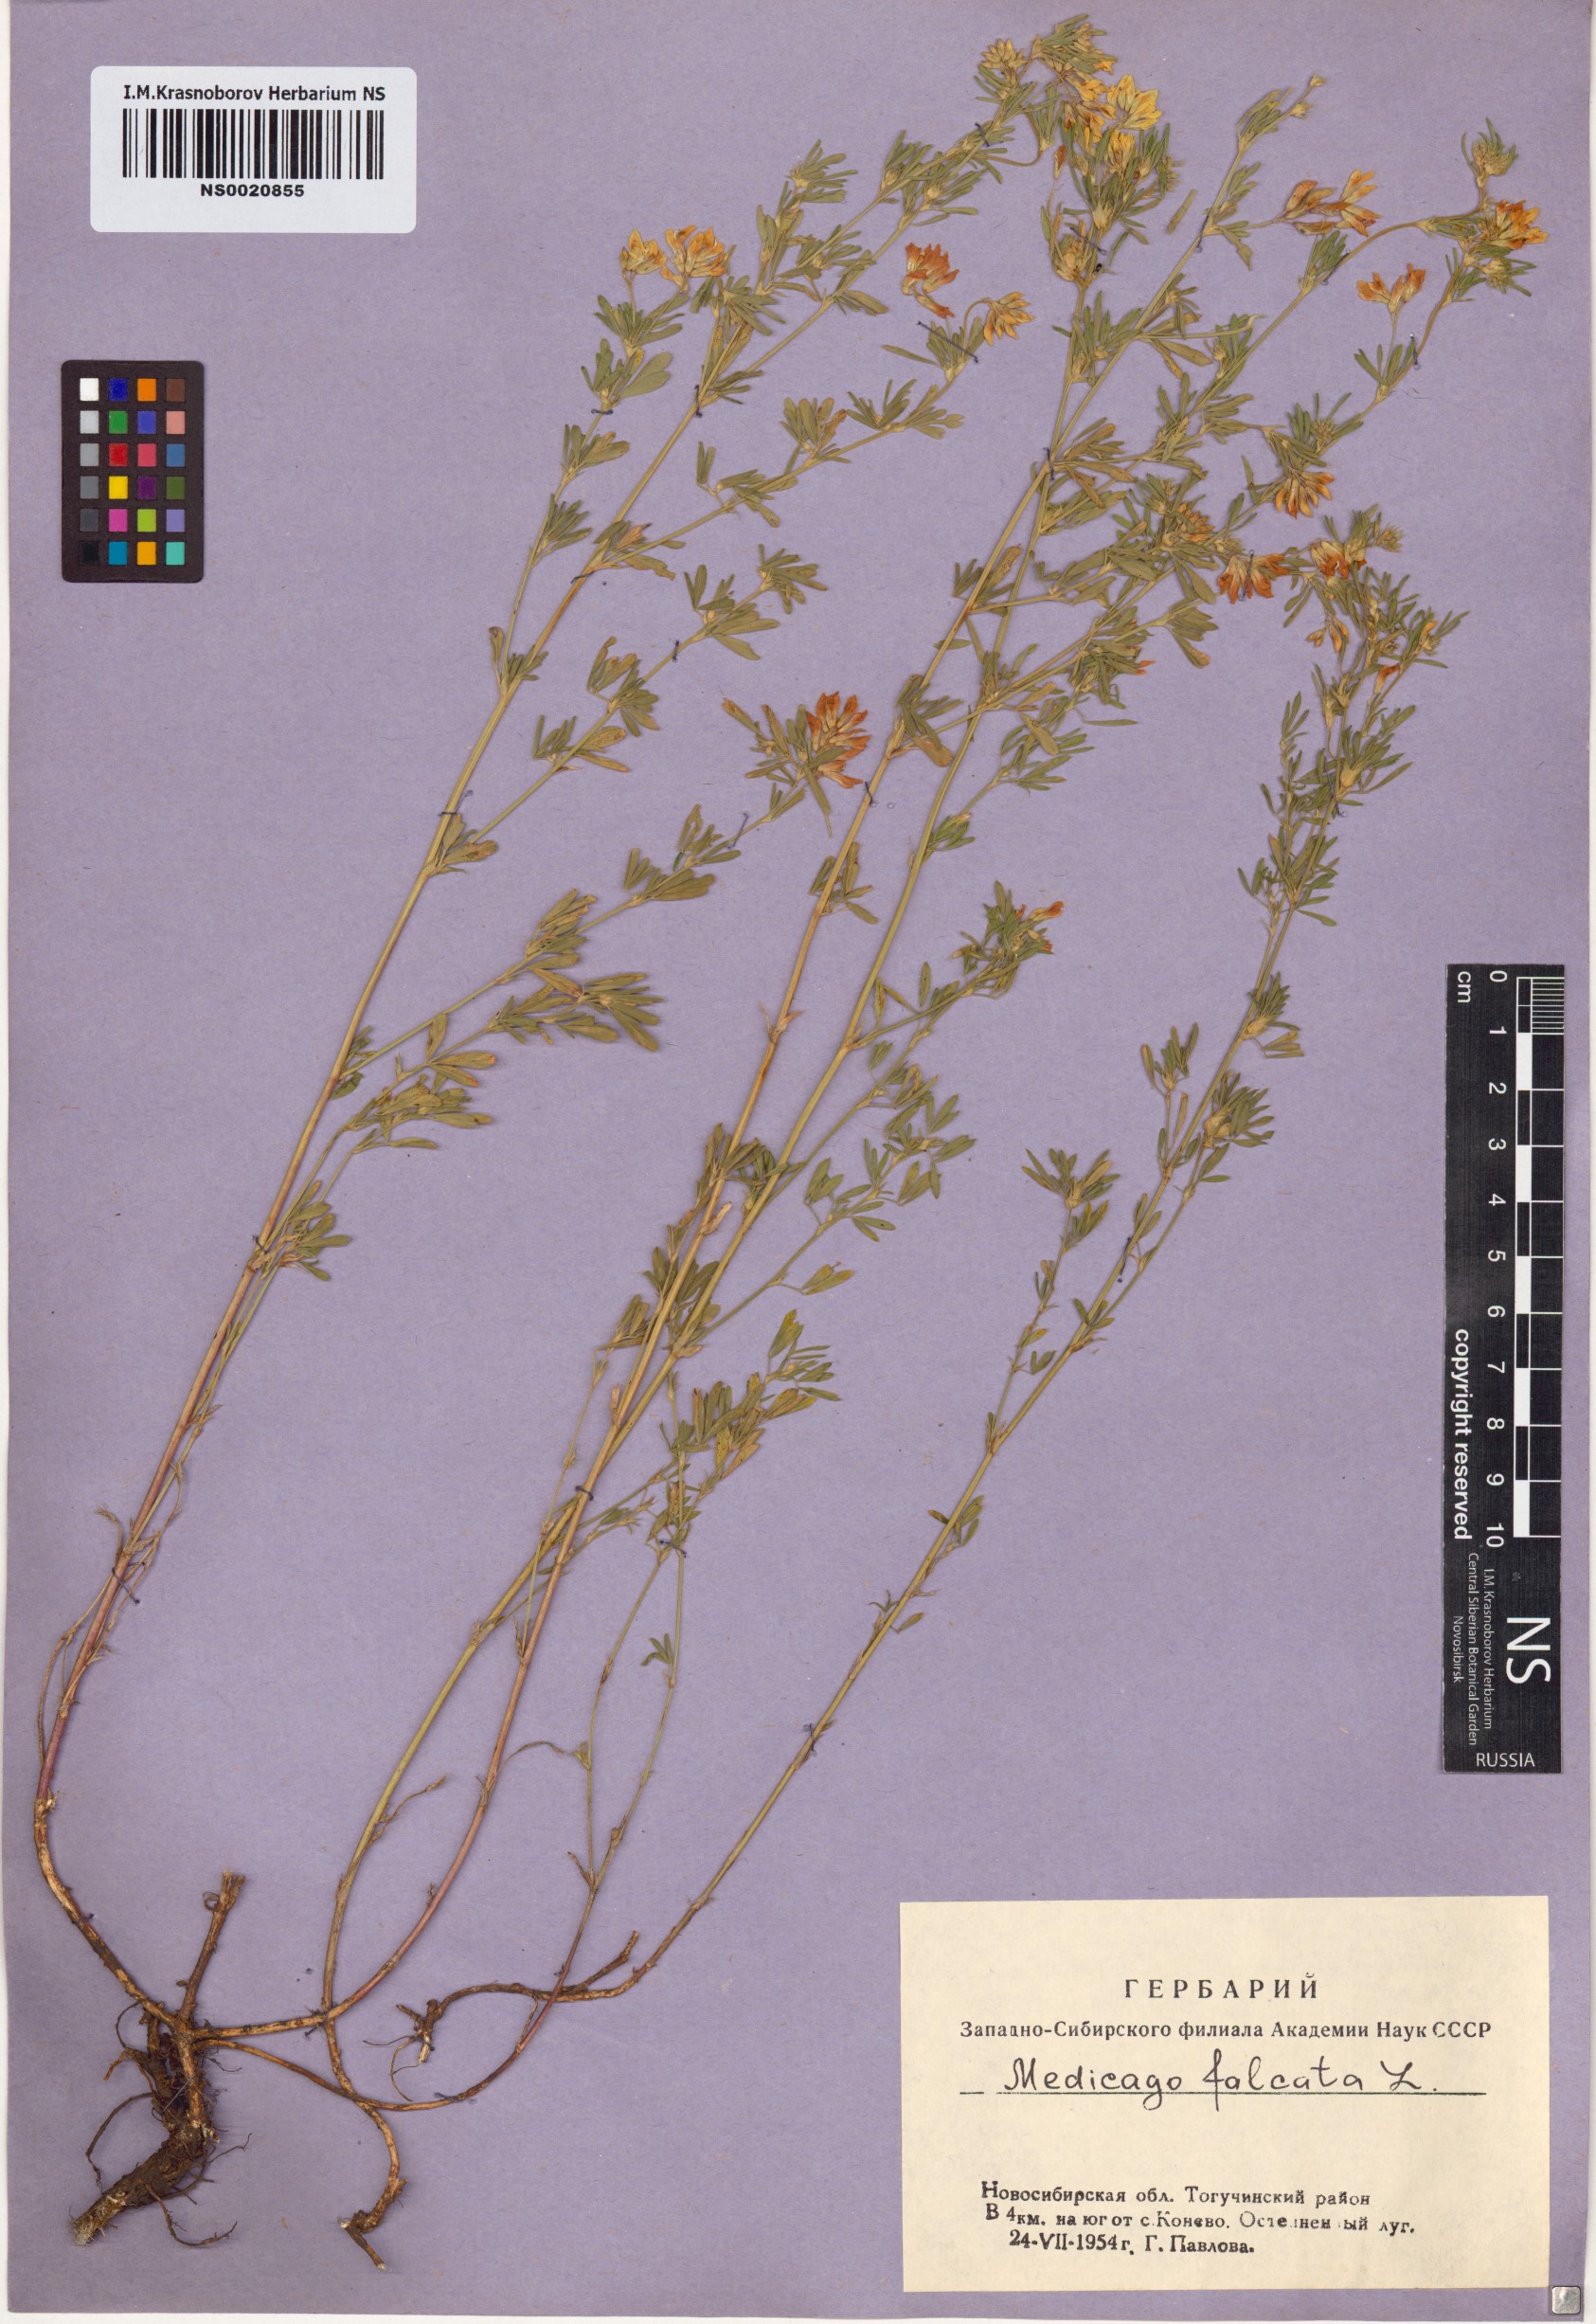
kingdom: Plantae
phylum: Tracheophyta
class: Magnoliopsida
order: Fabales
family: Fabaceae
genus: Medicago
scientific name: Medicago falcata
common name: Sickle medick
